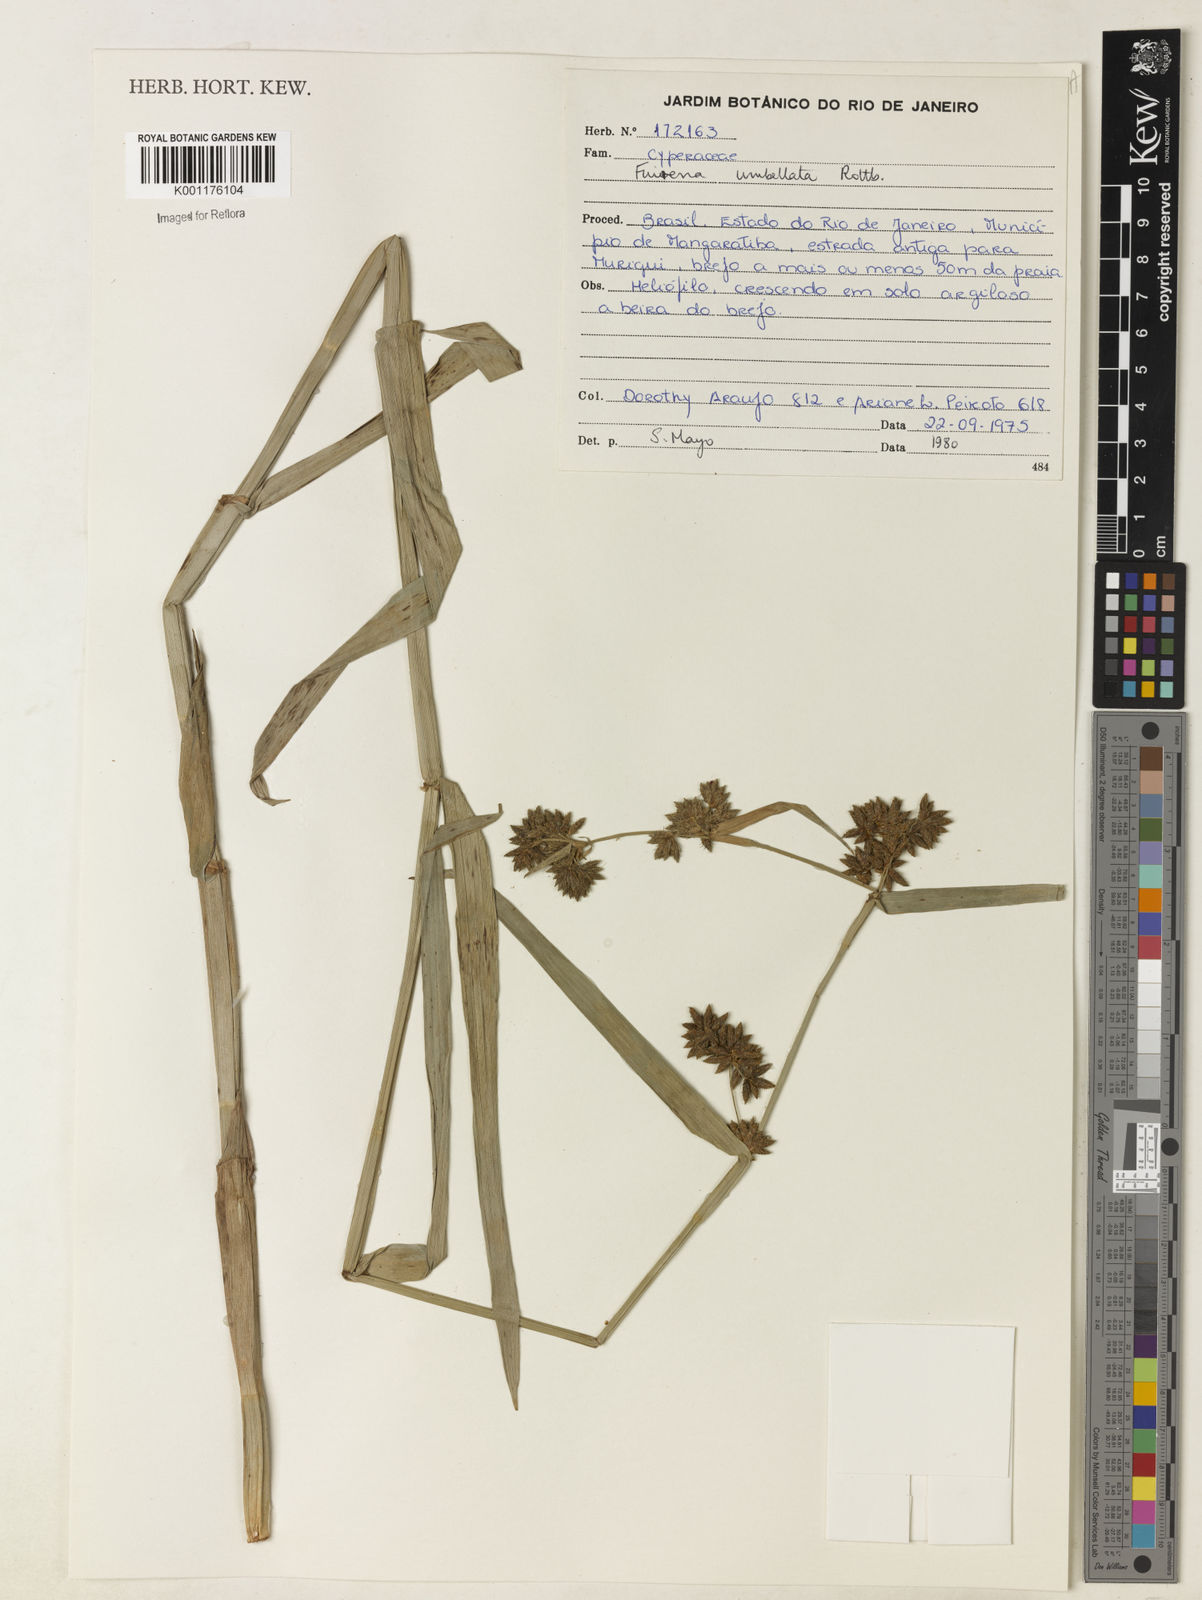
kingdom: Plantae
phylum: Tracheophyta
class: Liliopsida
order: Poales
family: Cyperaceae
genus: Fuirena
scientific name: Fuirena umbellata
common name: Yefen
